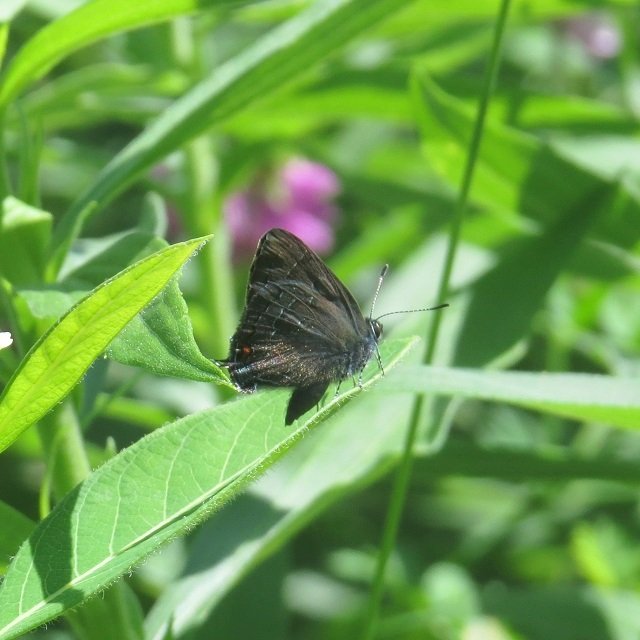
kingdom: Animalia
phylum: Arthropoda
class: Insecta
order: Lepidoptera
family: Lycaenidae
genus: Satyrium
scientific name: Satyrium calanus
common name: Banded Hairstreak
